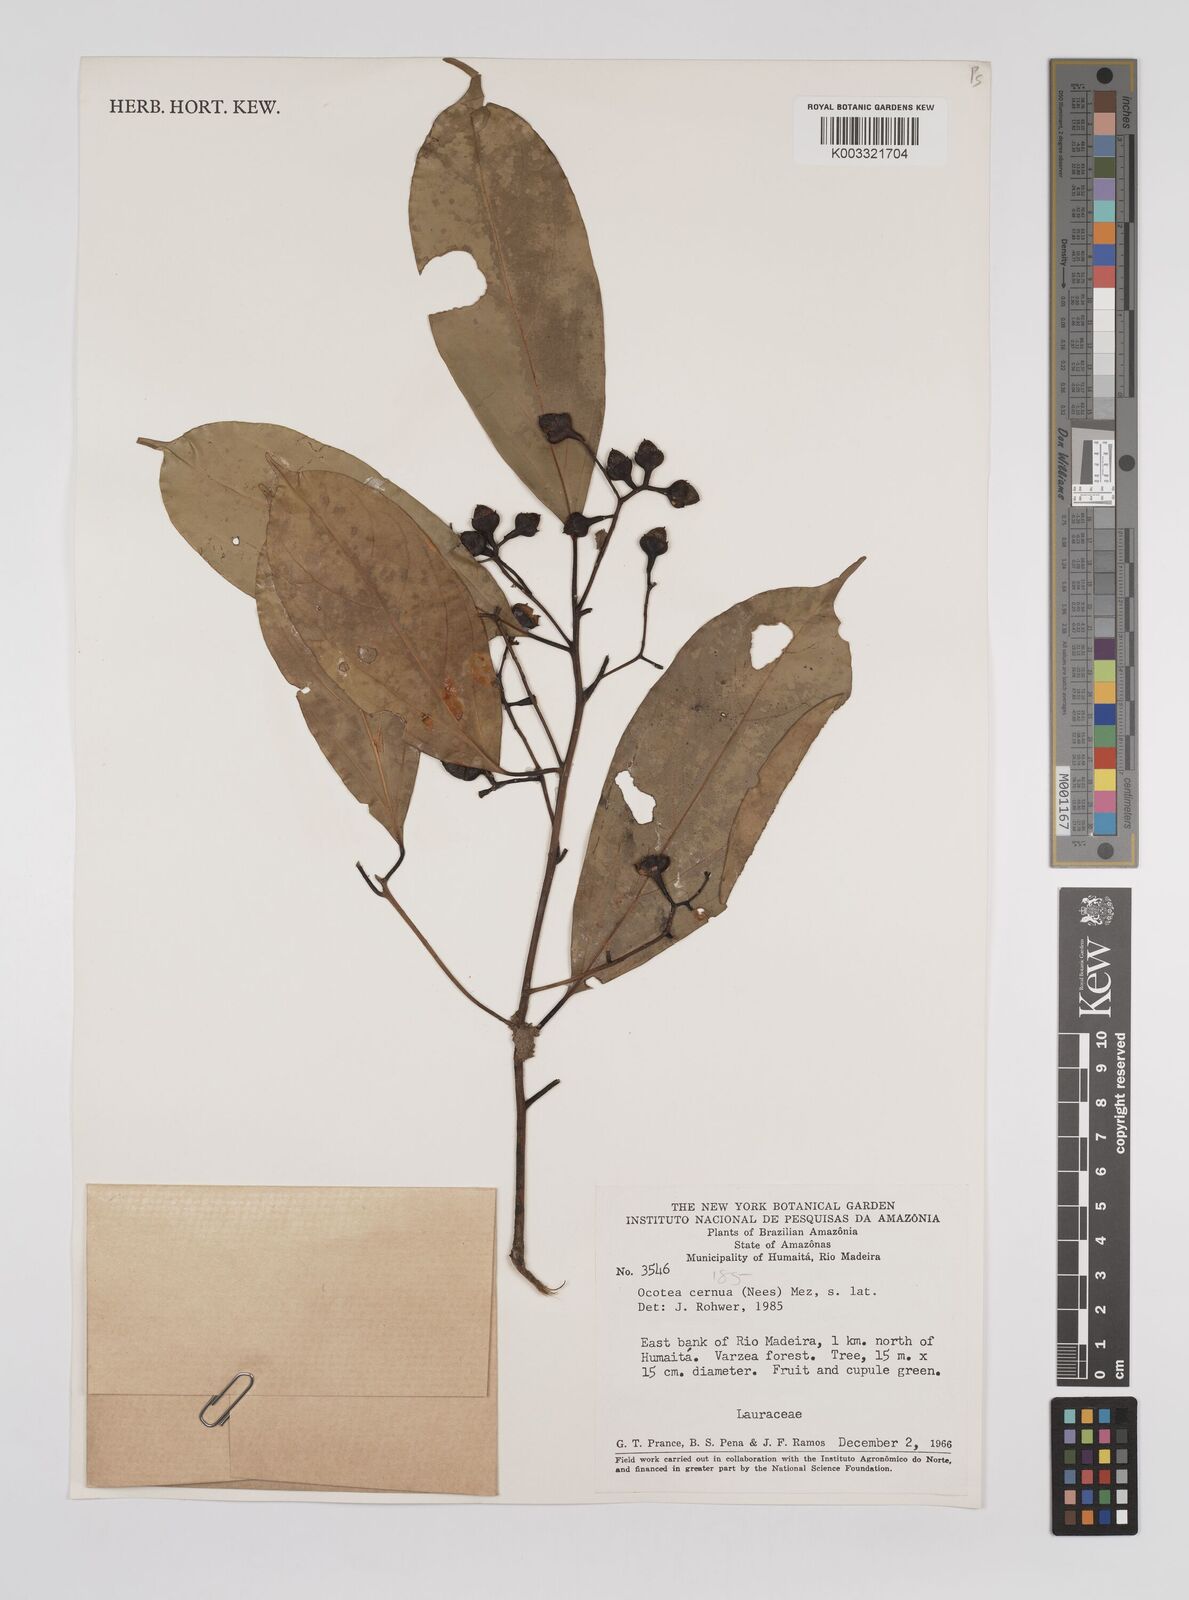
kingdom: Plantae
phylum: Tracheophyta
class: Magnoliopsida
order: Laurales
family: Lauraceae
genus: Ocotea
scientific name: Ocotea leptobotra
